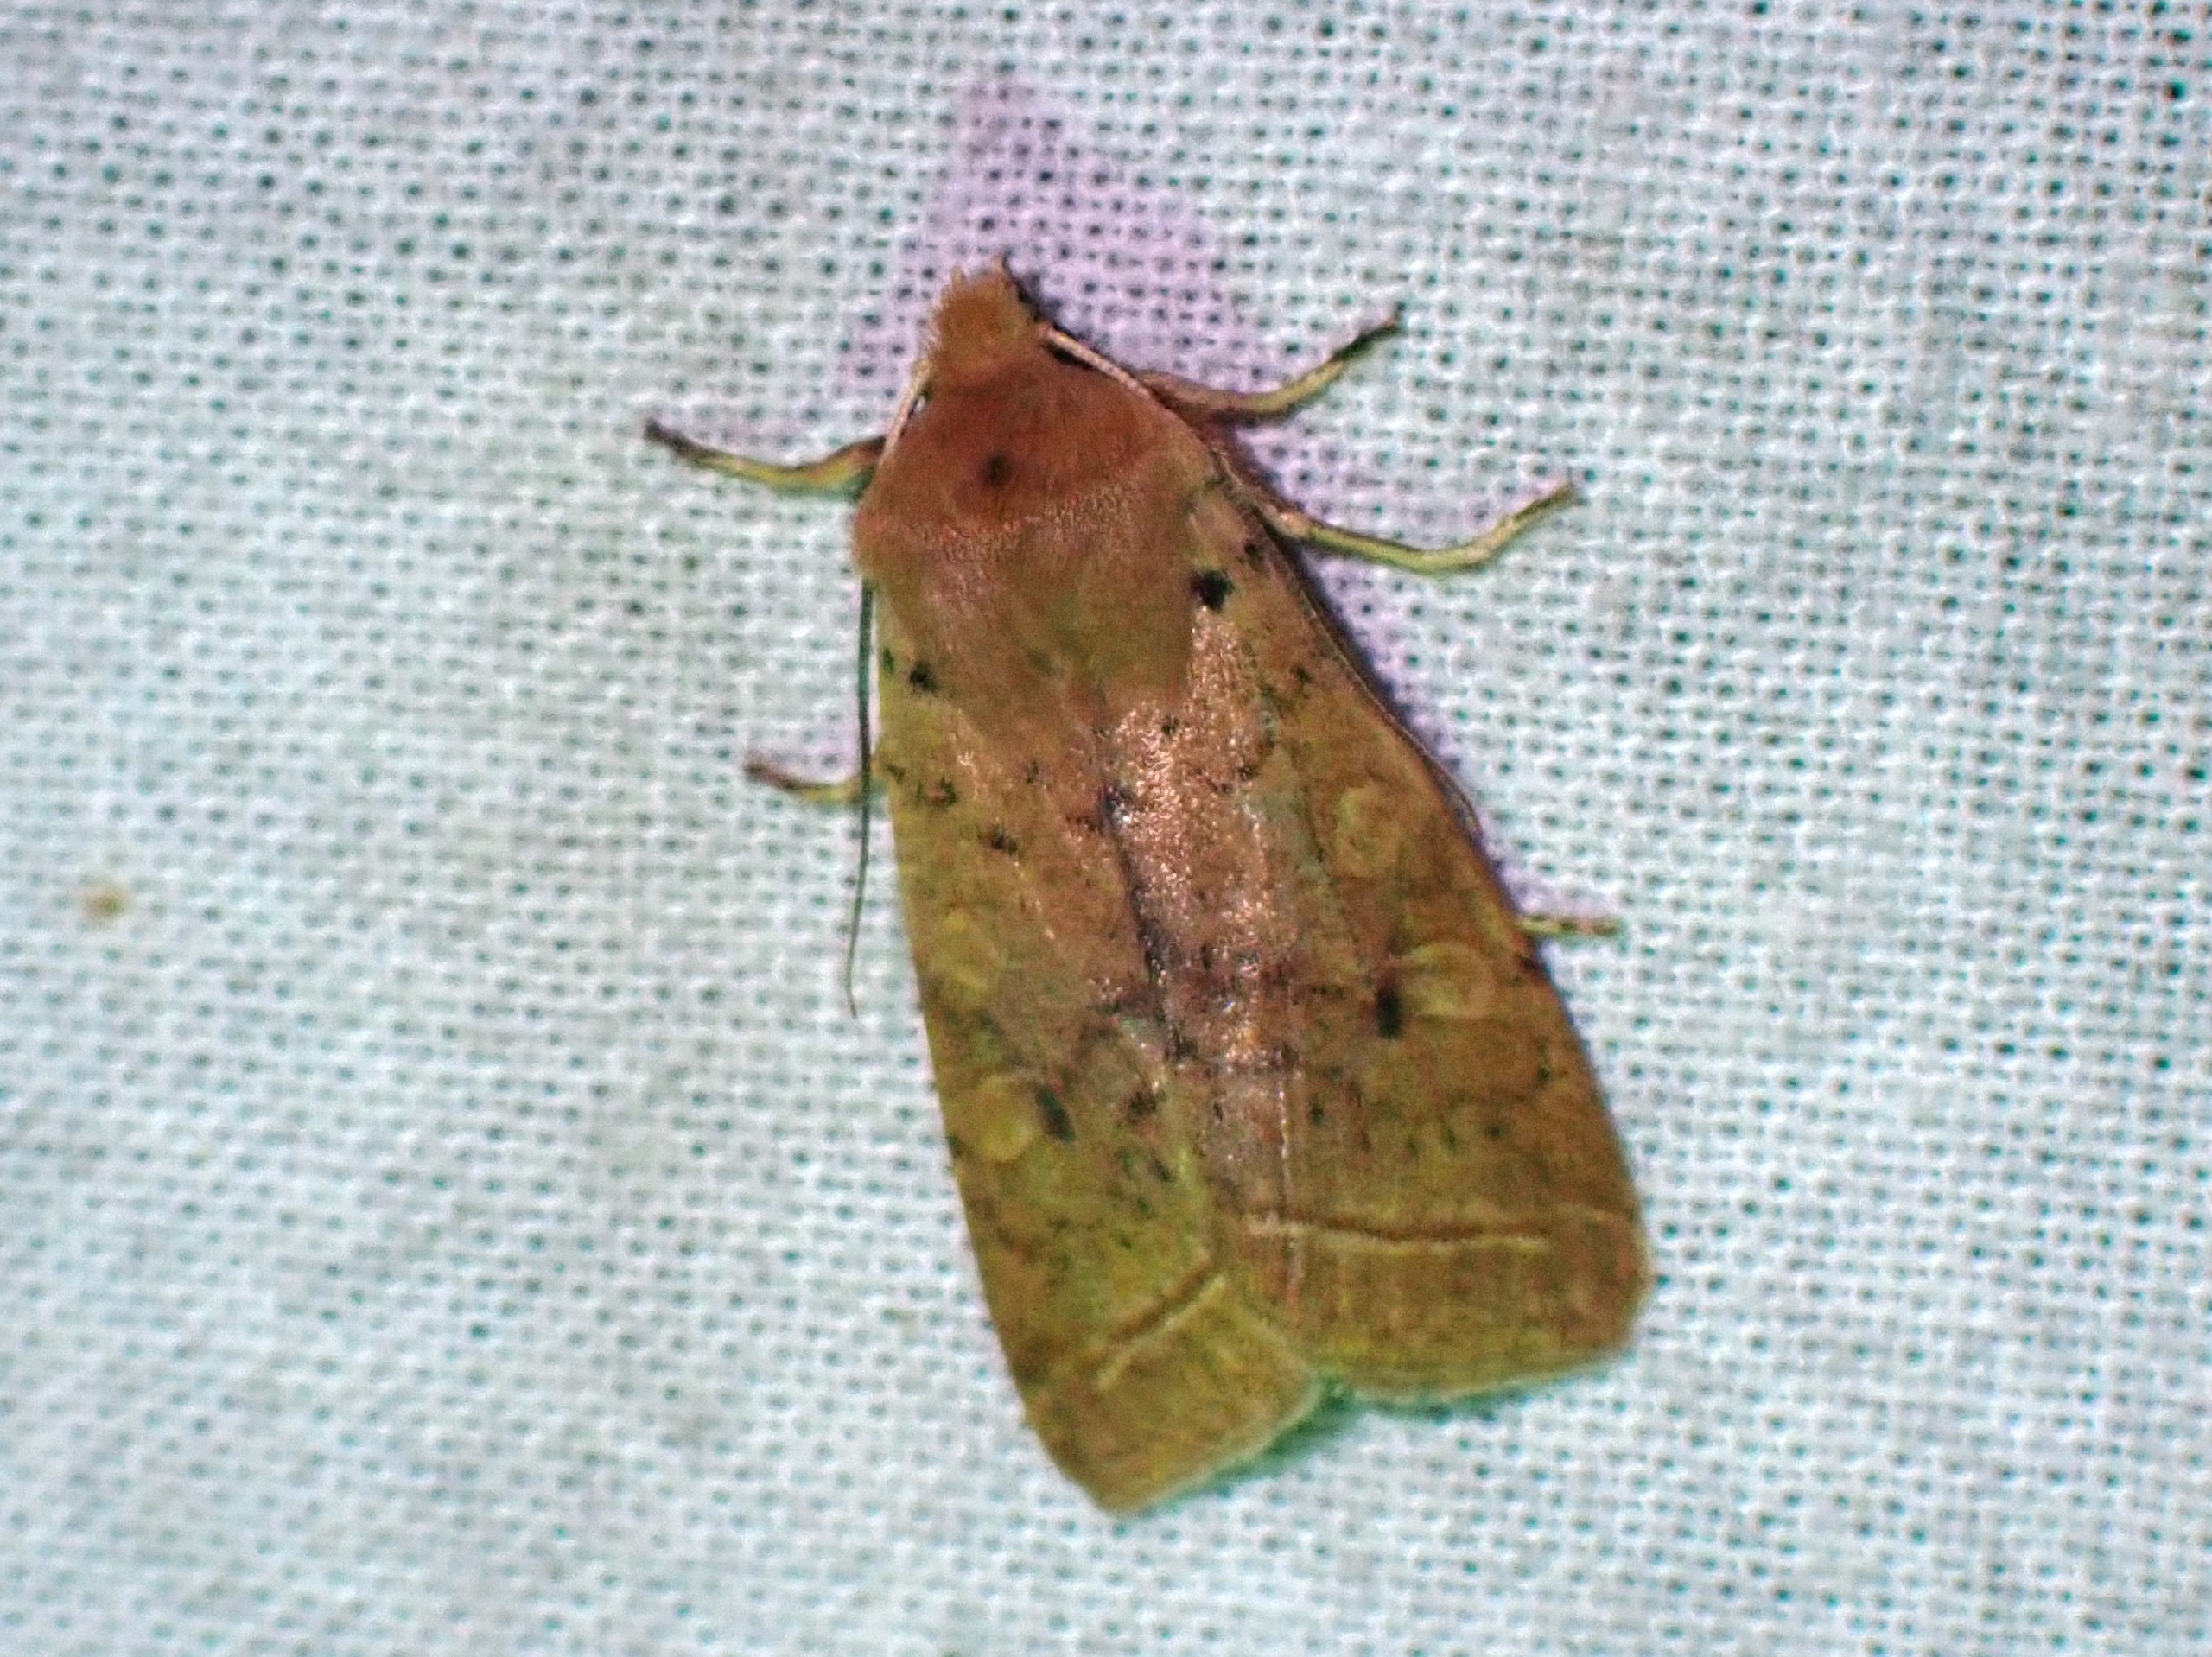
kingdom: Animalia
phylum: Arthropoda
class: Insecta
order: Lepidoptera
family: Noctuidae
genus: Agrochola
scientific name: Agrochola Leptologia macilenta
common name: Mager jordfarveugle
